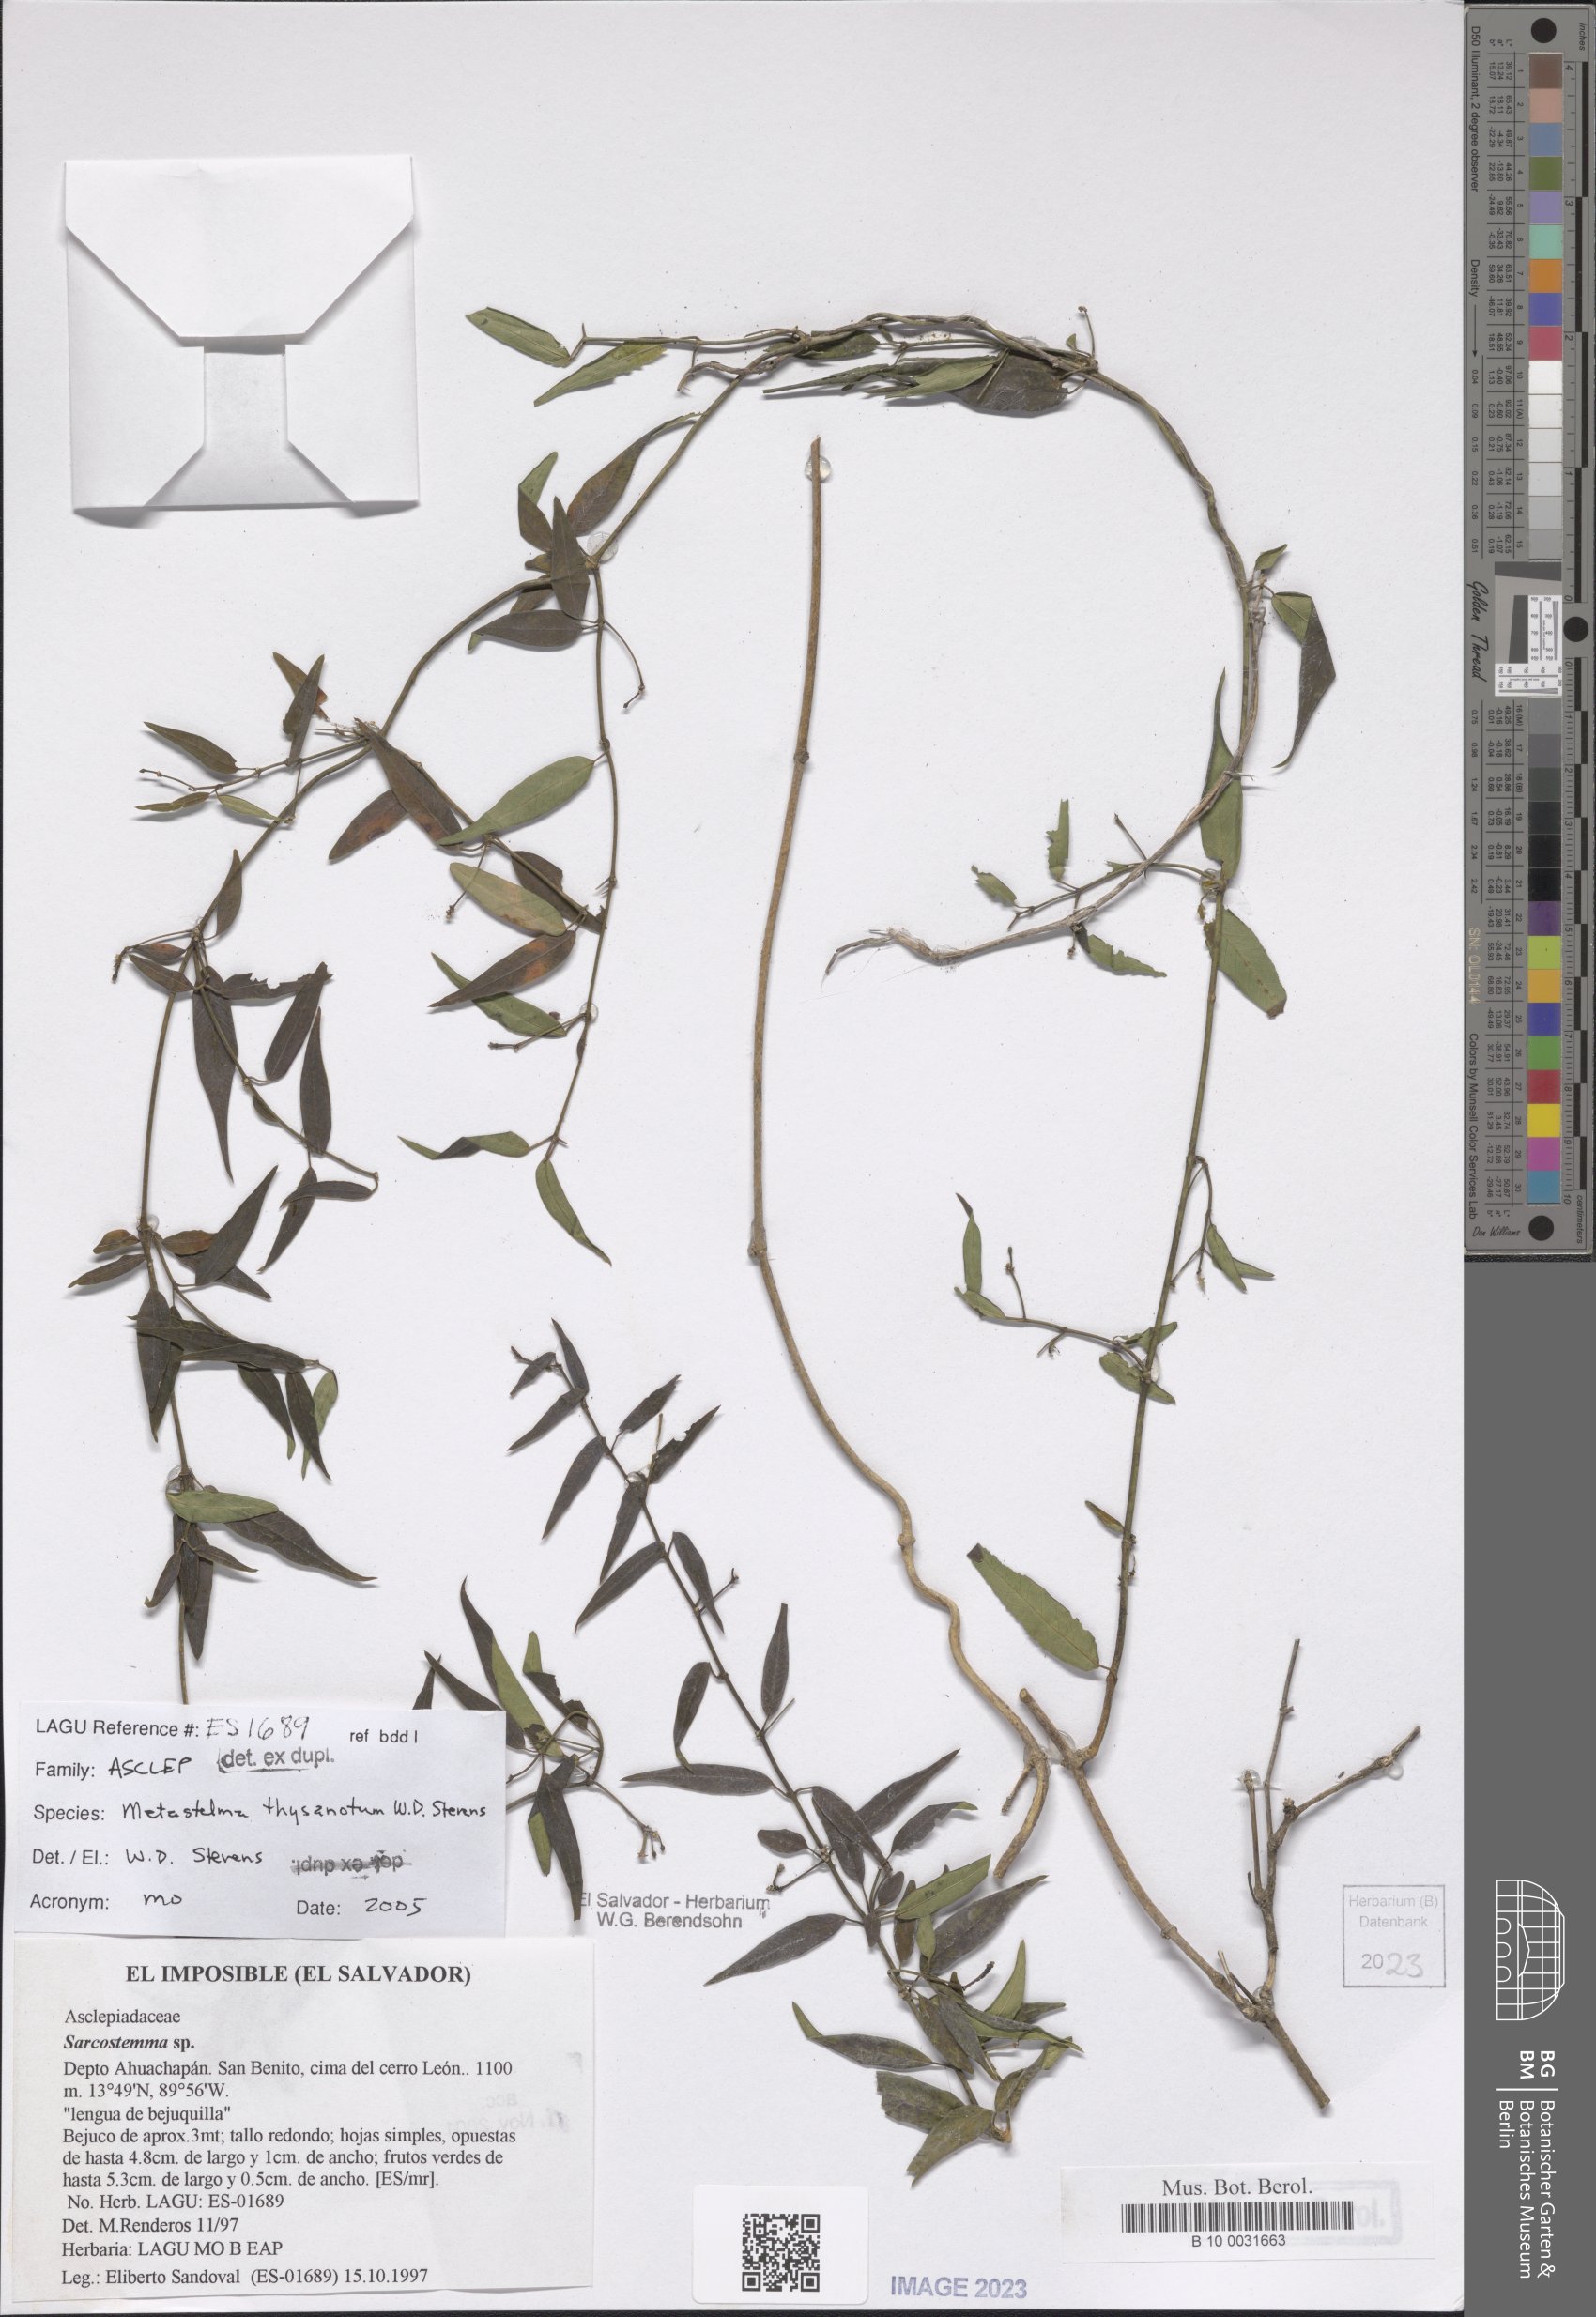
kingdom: Plantae
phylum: Tracheophyta
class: Magnoliopsida
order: Gentianales
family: Apocynaceae
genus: Metastelma
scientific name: Metastelma thysanotum
